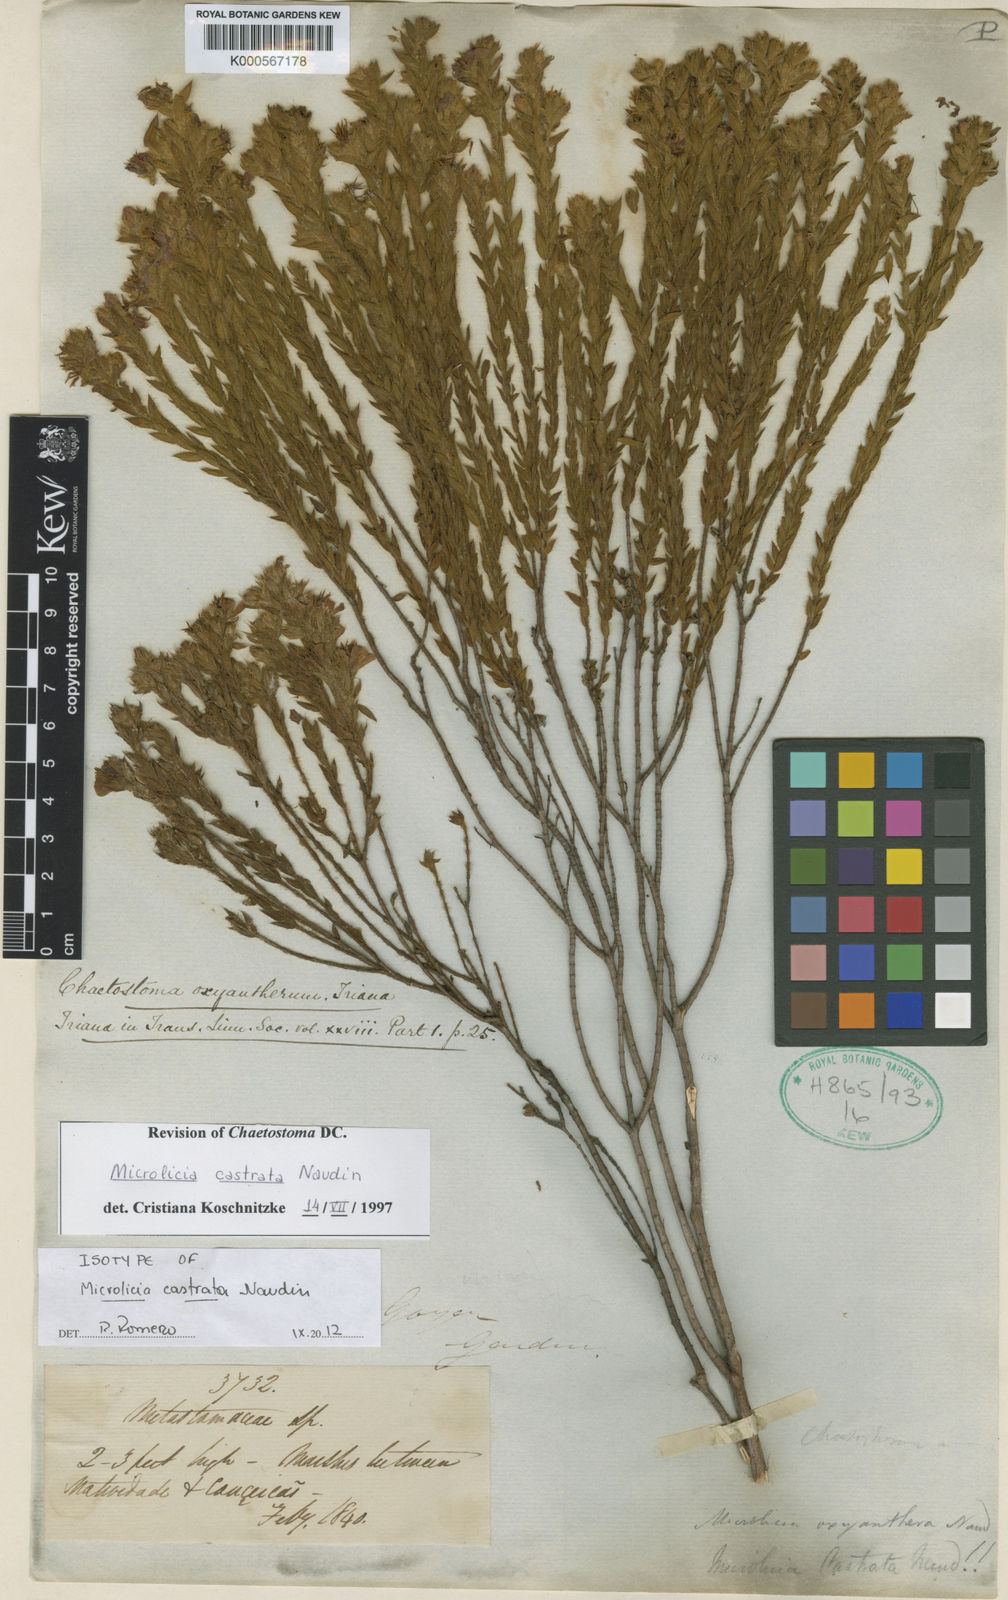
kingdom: Plantae
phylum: Tracheophyta
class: Magnoliopsida
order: Myrtales
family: Melastomataceae
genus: Microlicia
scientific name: Microlicia
